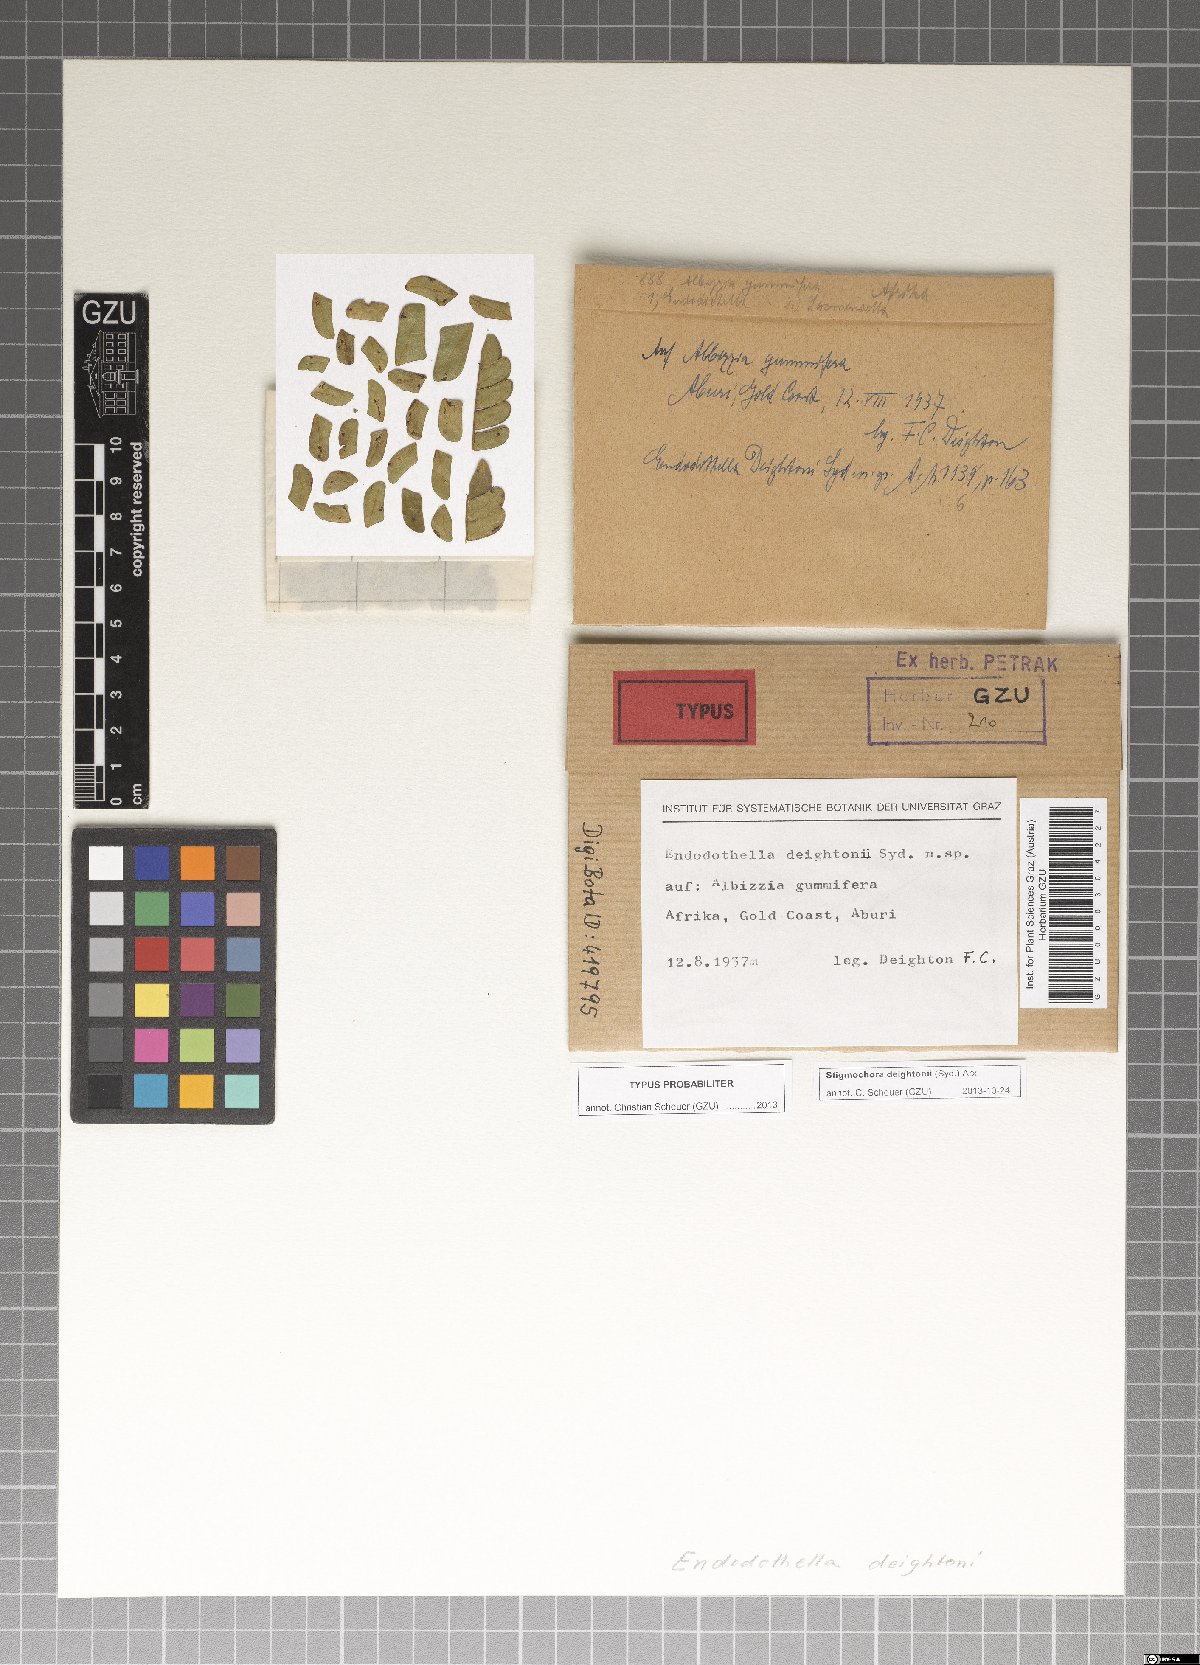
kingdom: Fungi
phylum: Ascomycota
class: Sordariomycetes
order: Phyllachorales
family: Phyllachoraceae
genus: Stigmochora
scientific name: Stigmochora deightonii
